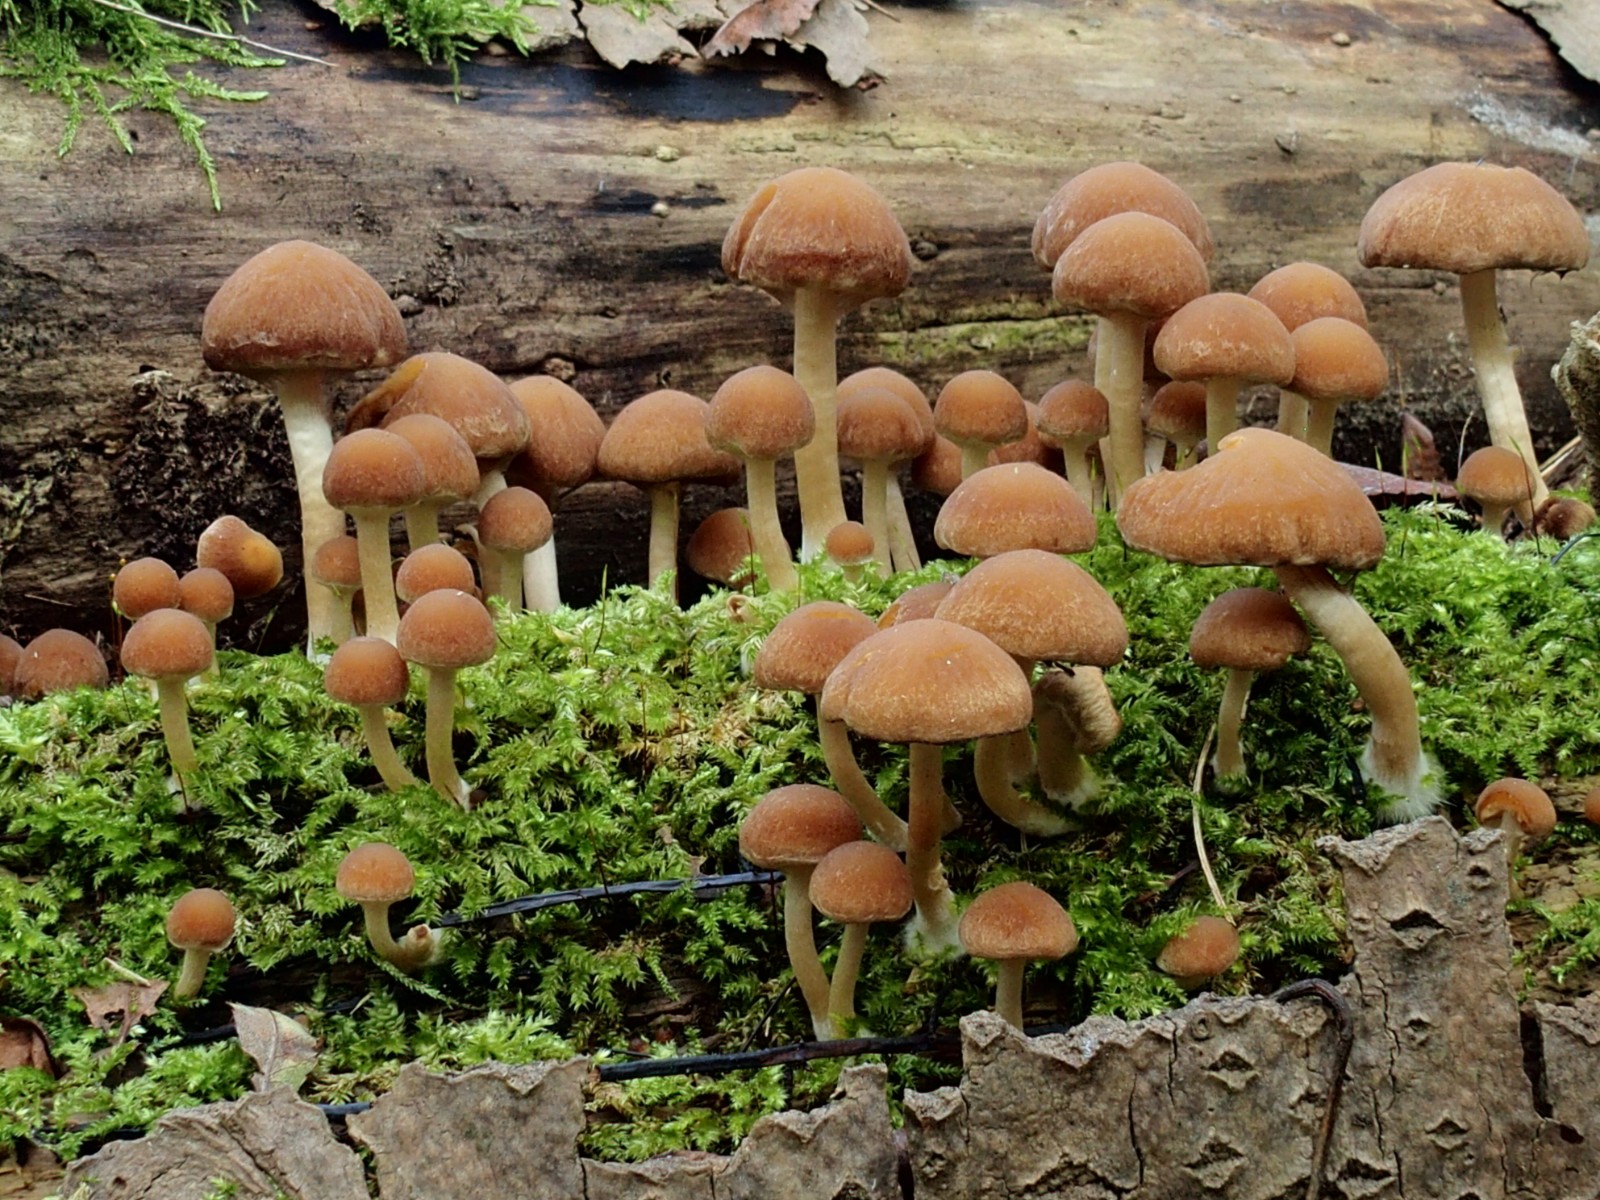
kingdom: Fungi
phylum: Basidiomycota
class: Agaricomycetes
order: Agaricales
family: Psathyrellaceae
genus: Psathyrella
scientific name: Psathyrella piluliformis
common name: lysstokket mørkhat
